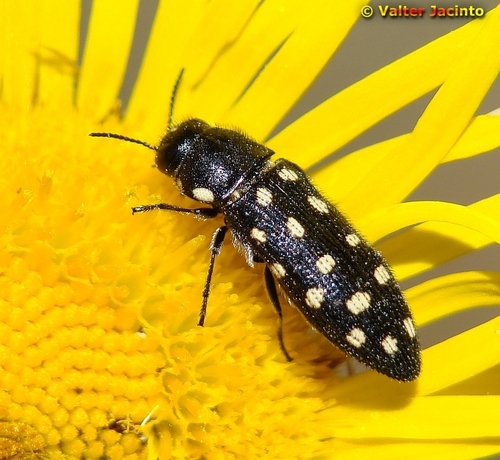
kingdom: Animalia
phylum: Arthropoda
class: Insecta
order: Coleoptera
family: Buprestidae
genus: Acmaeodera
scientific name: Acmaeodera degener
